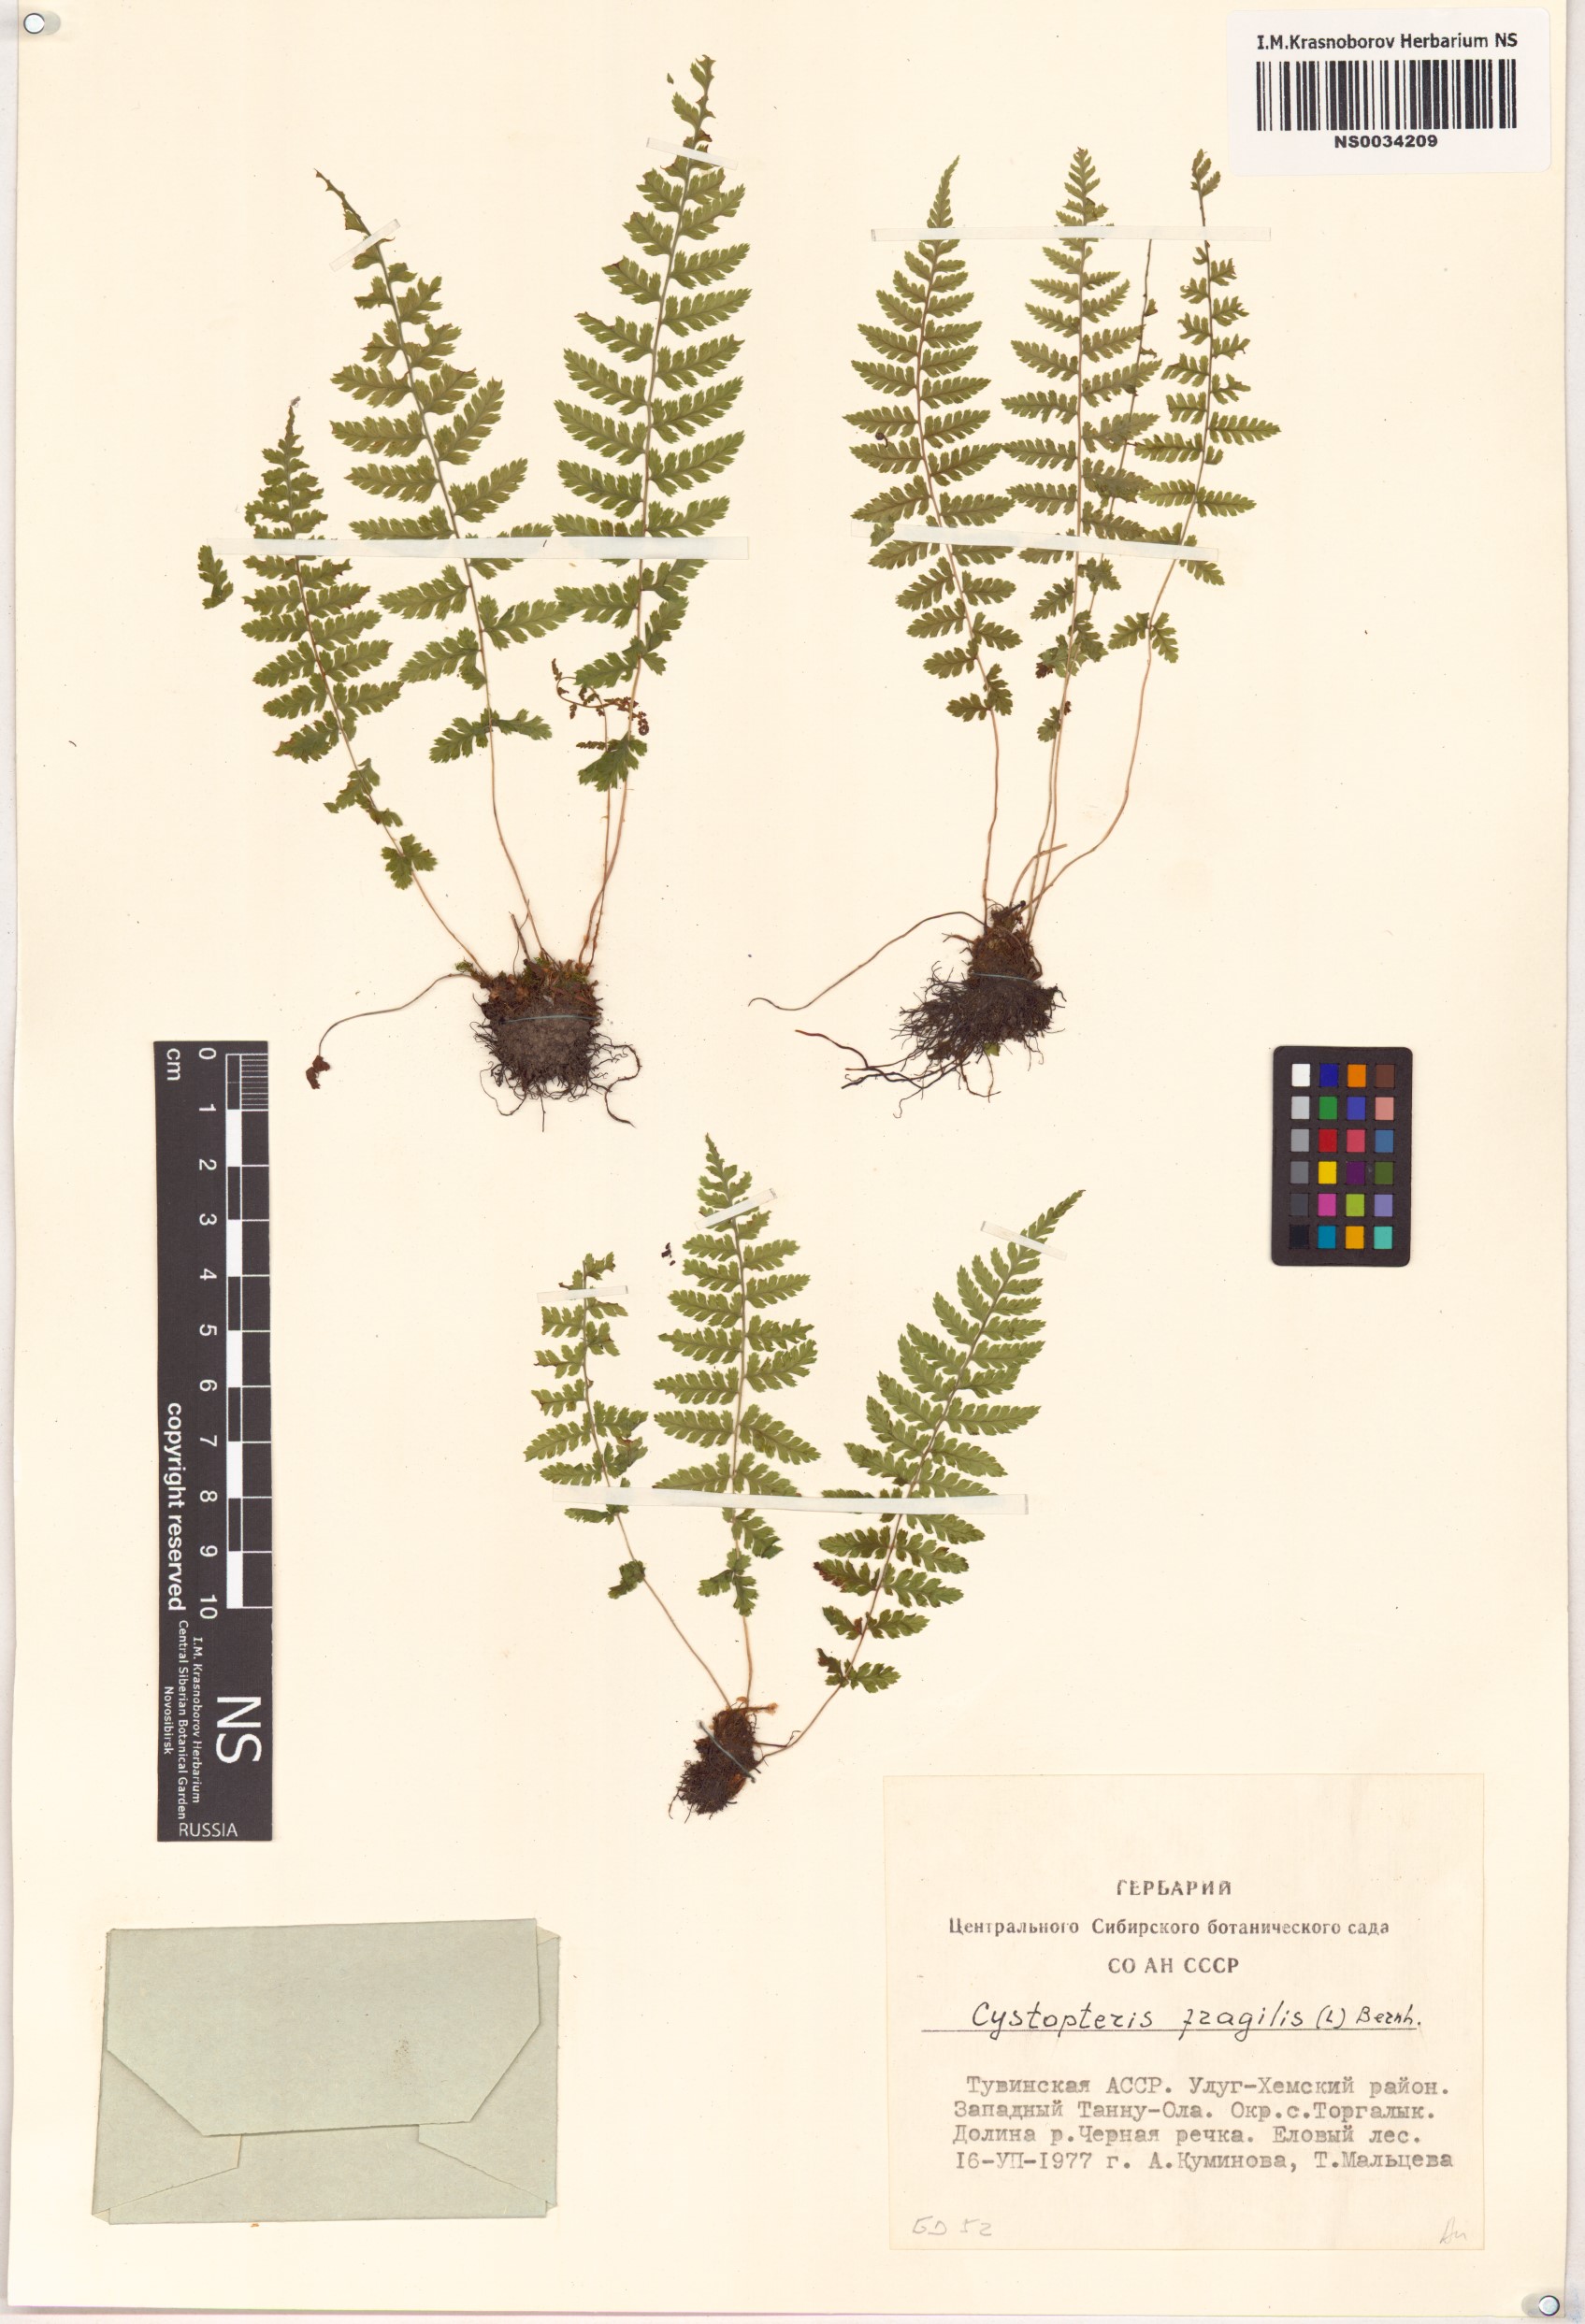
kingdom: Plantae
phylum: Tracheophyta
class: Polypodiopsida
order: Polypodiales
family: Cystopteridaceae
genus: Cystopteris
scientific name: Cystopteris fragilis
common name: Brittle bladder fern
